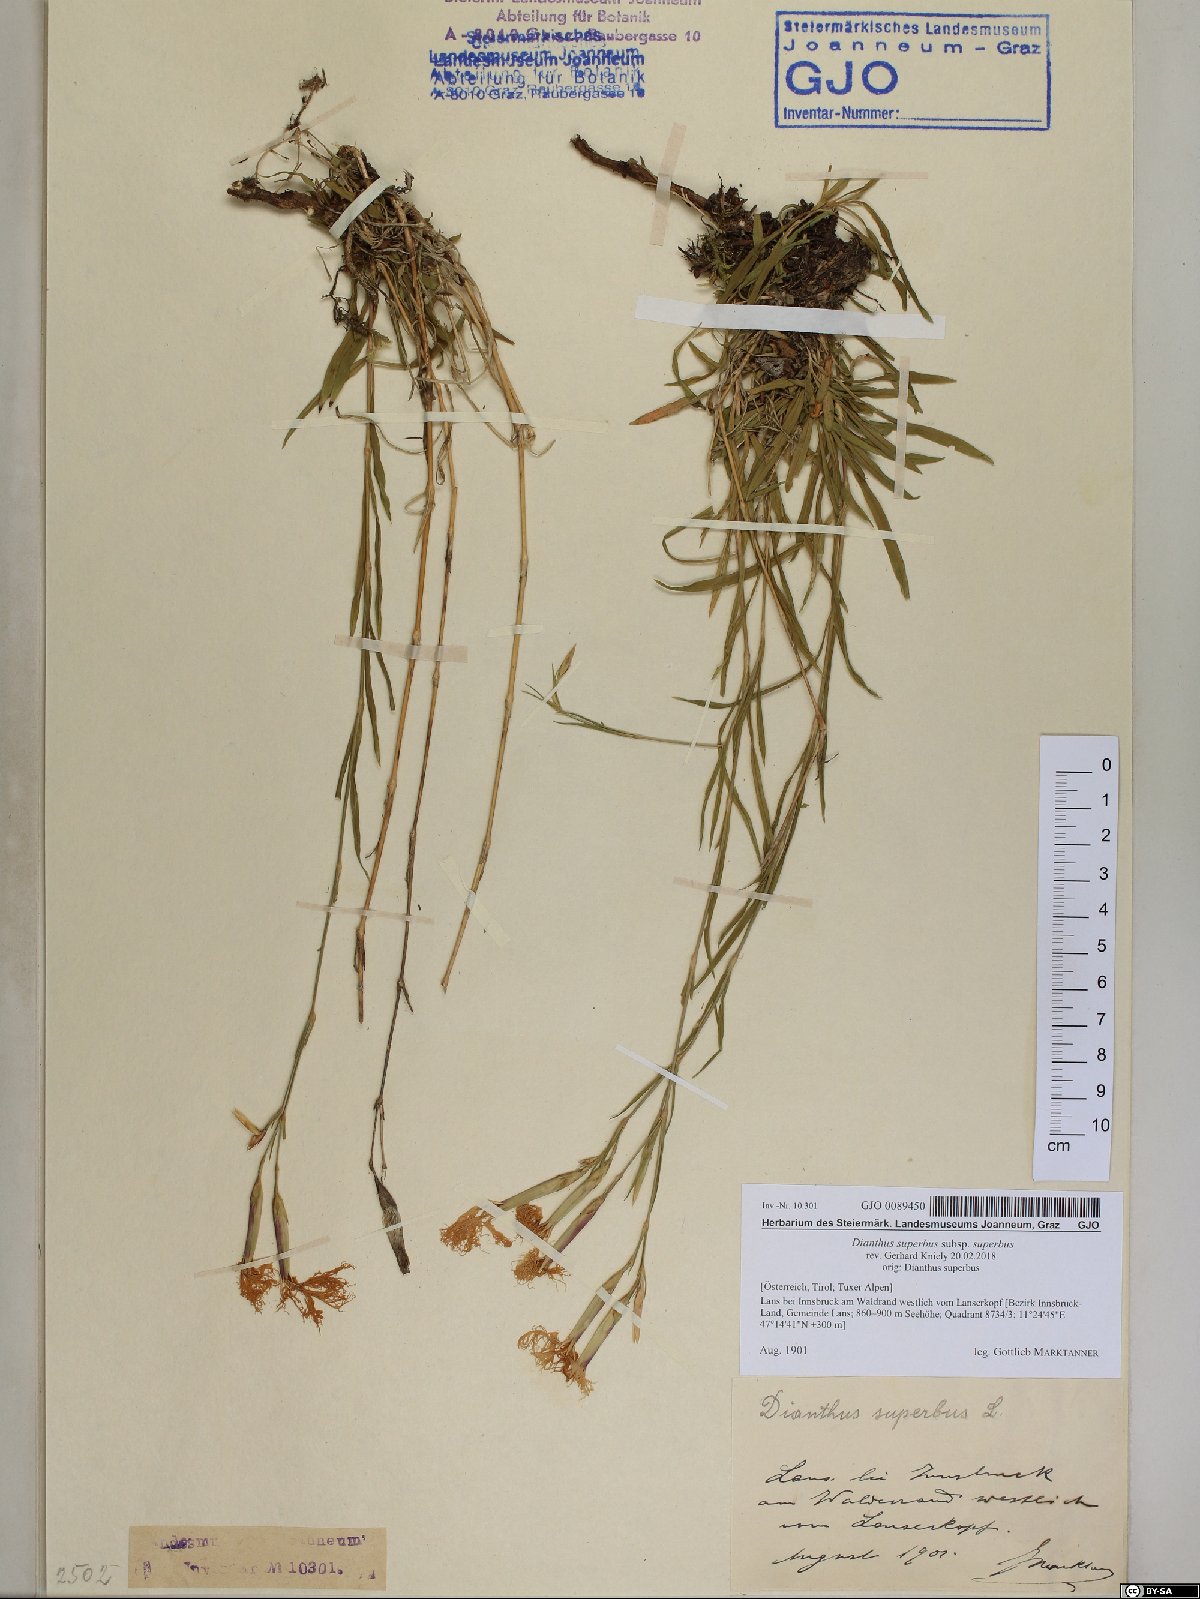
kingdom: Plantae
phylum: Tracheophyta
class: Magnoliopsida
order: Caryophyllales
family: Caryophyllaceae
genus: Dianthus
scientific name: Dianthus superbus
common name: Fringed pink
